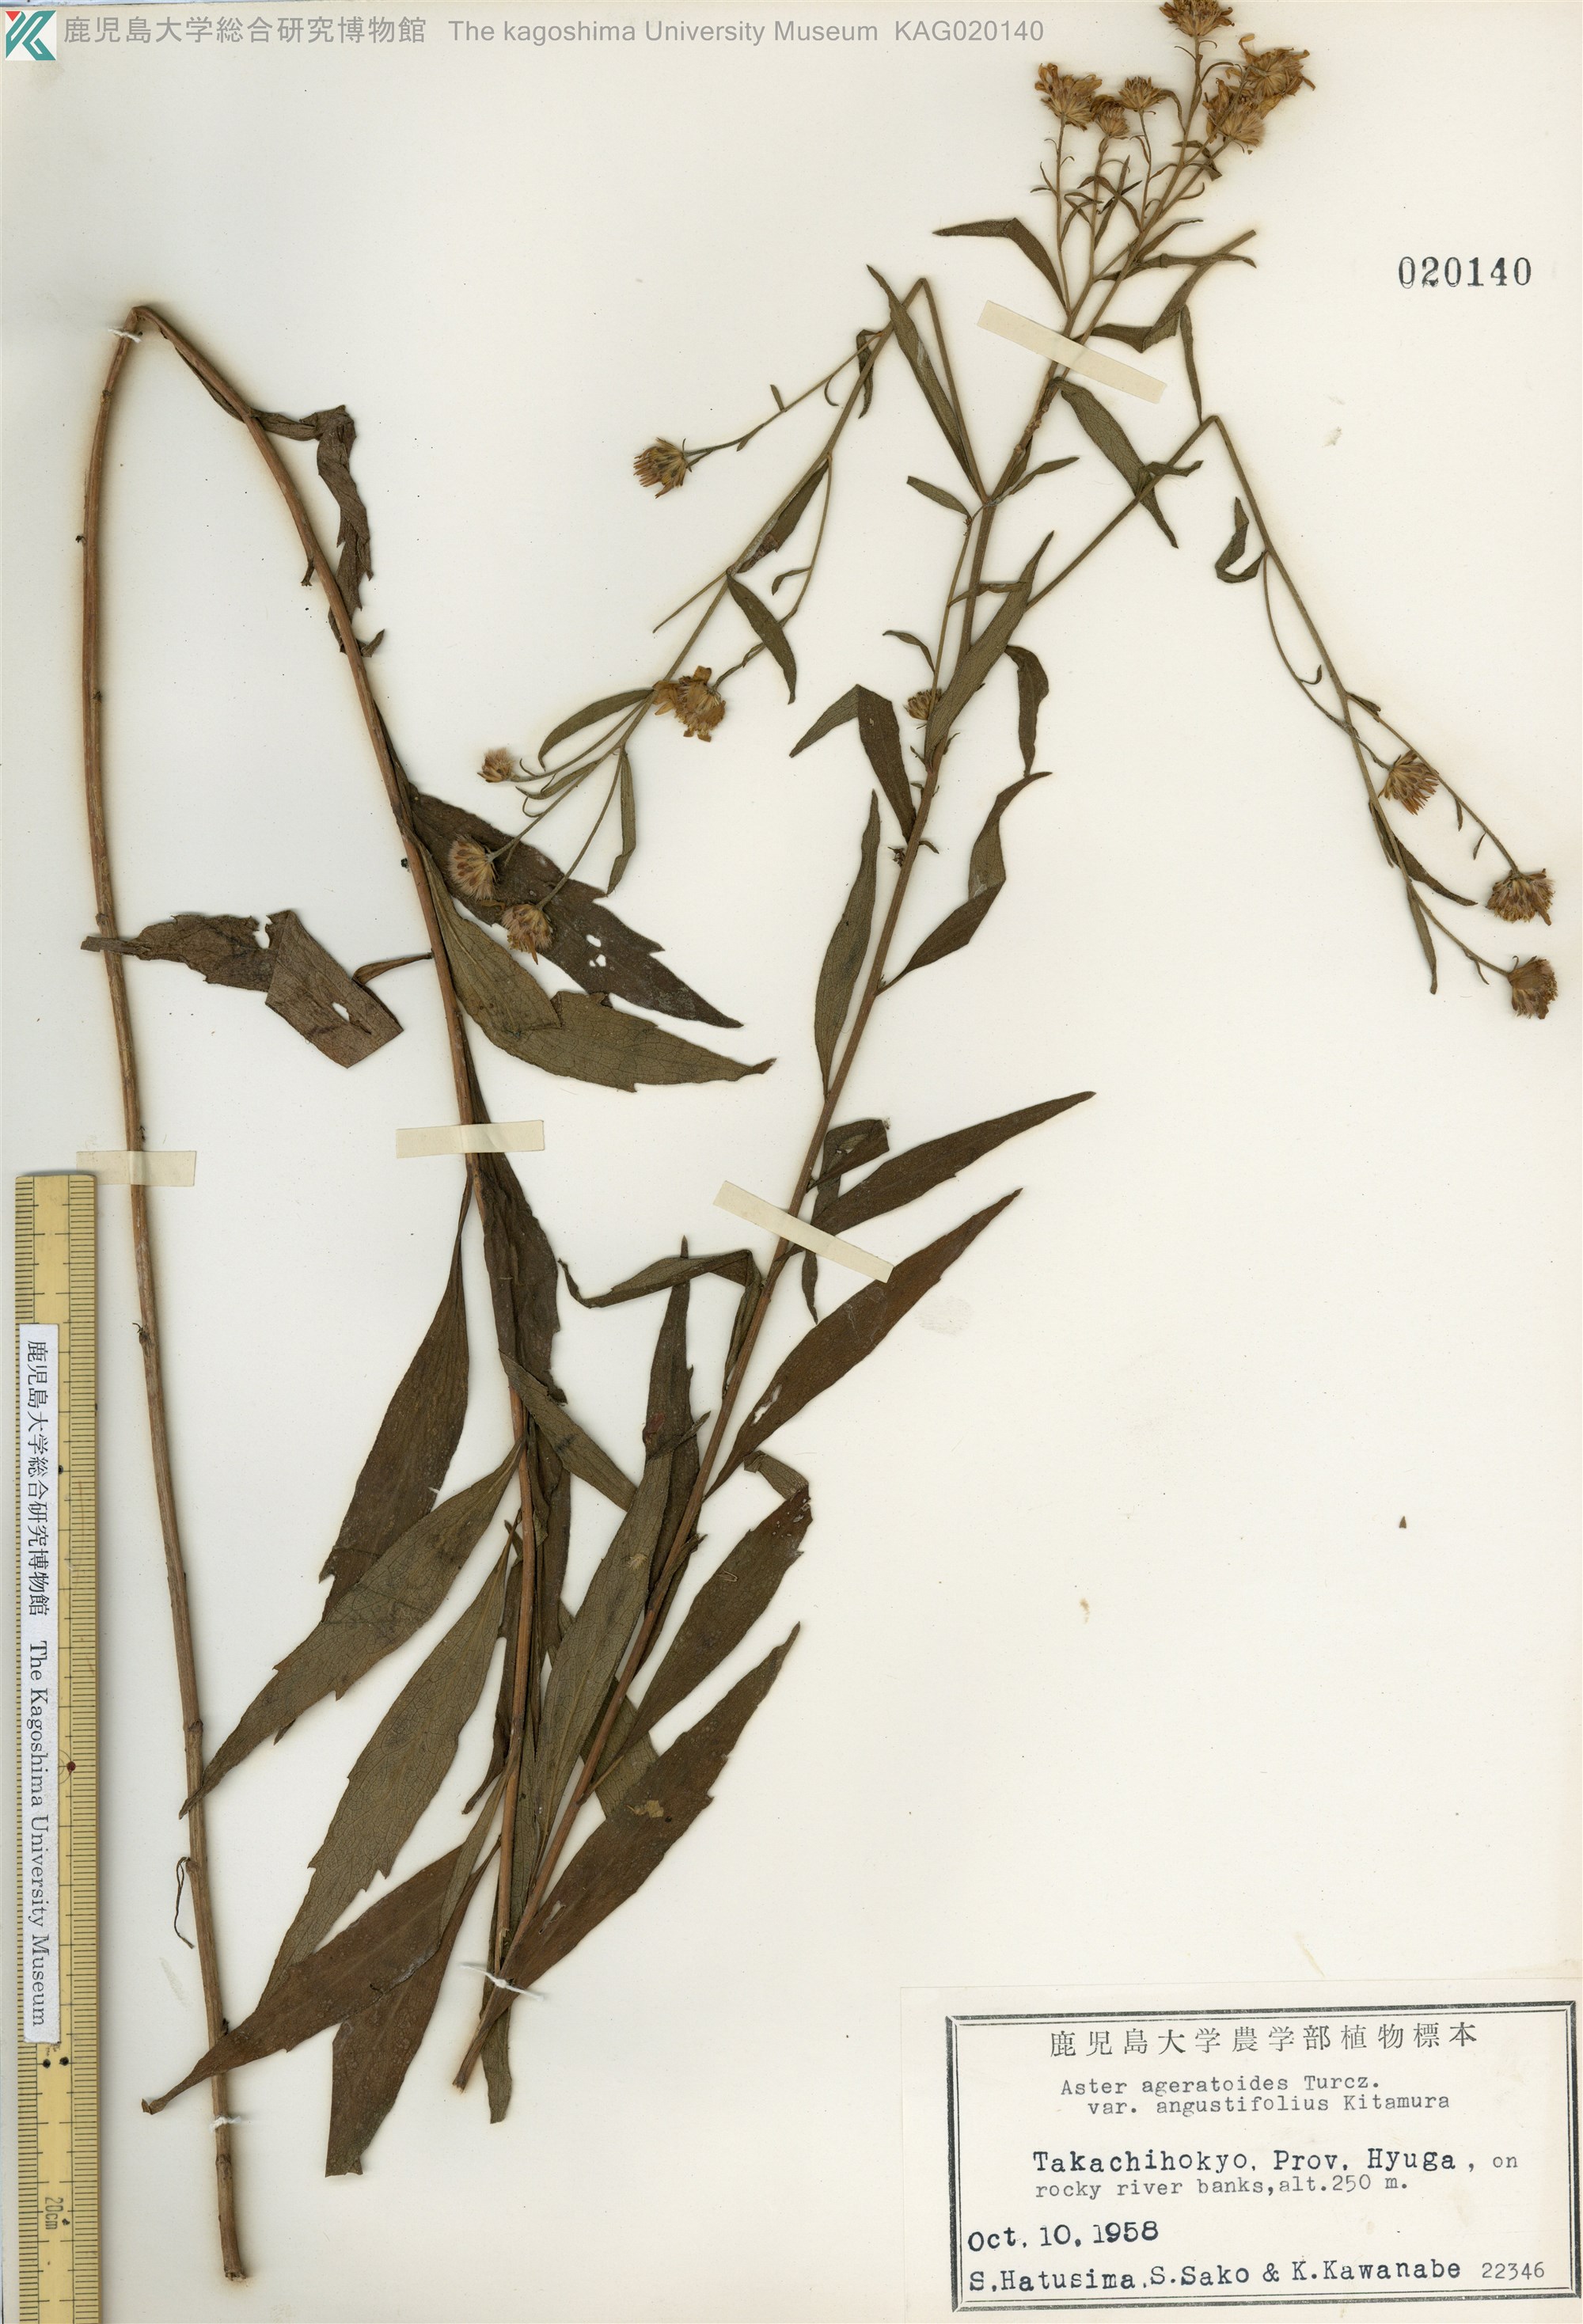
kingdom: Plantae
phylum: Tracheophyta
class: Magnoliopsida
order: Asterales
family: Asteraceae
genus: Aster
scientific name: Aster microcephalus
